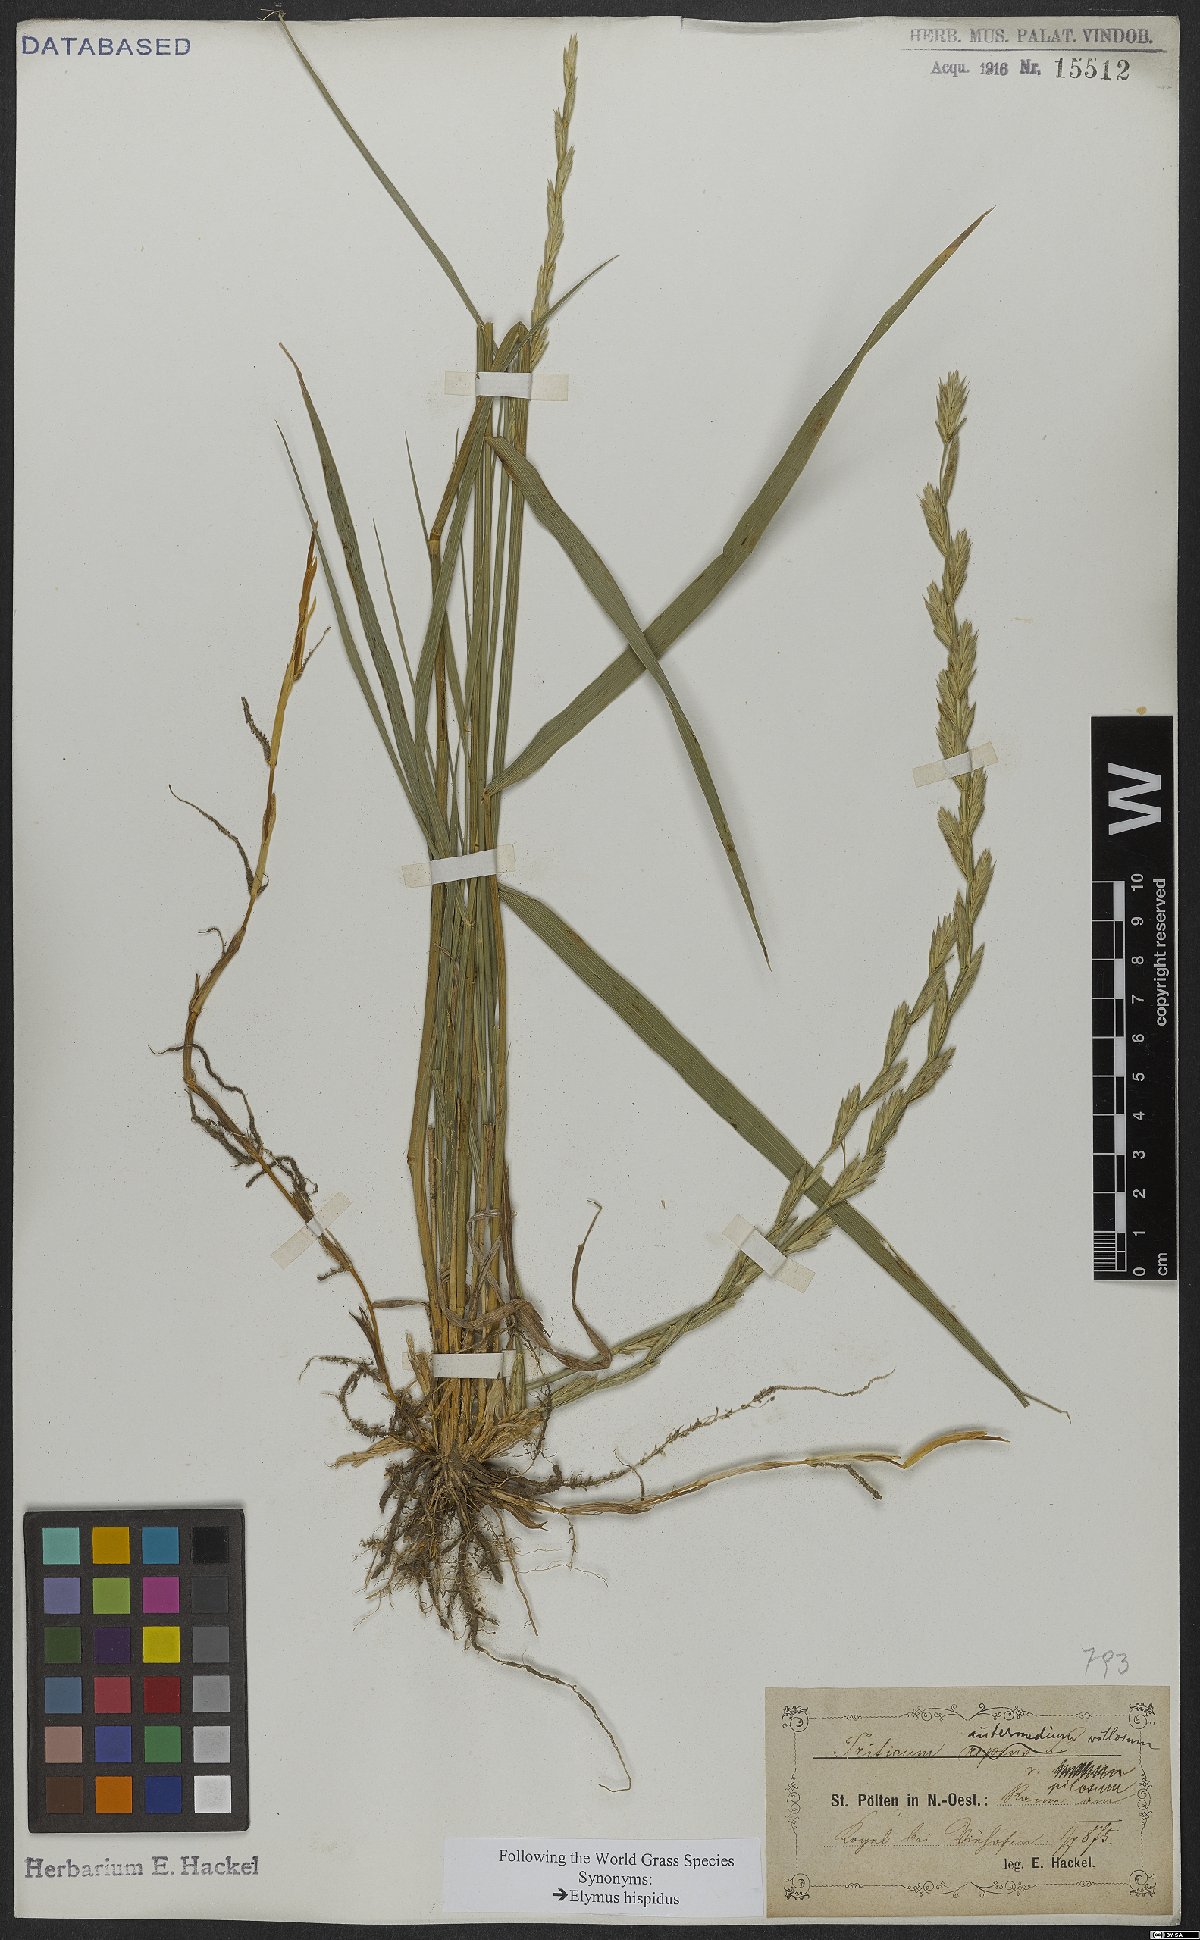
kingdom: Plantae
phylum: Tracheophyta
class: Liliopsida
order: Poales
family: Poaceae
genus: Thinopyrum
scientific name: Thinopyrum intermedium
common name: Intermediate wheatgrass
